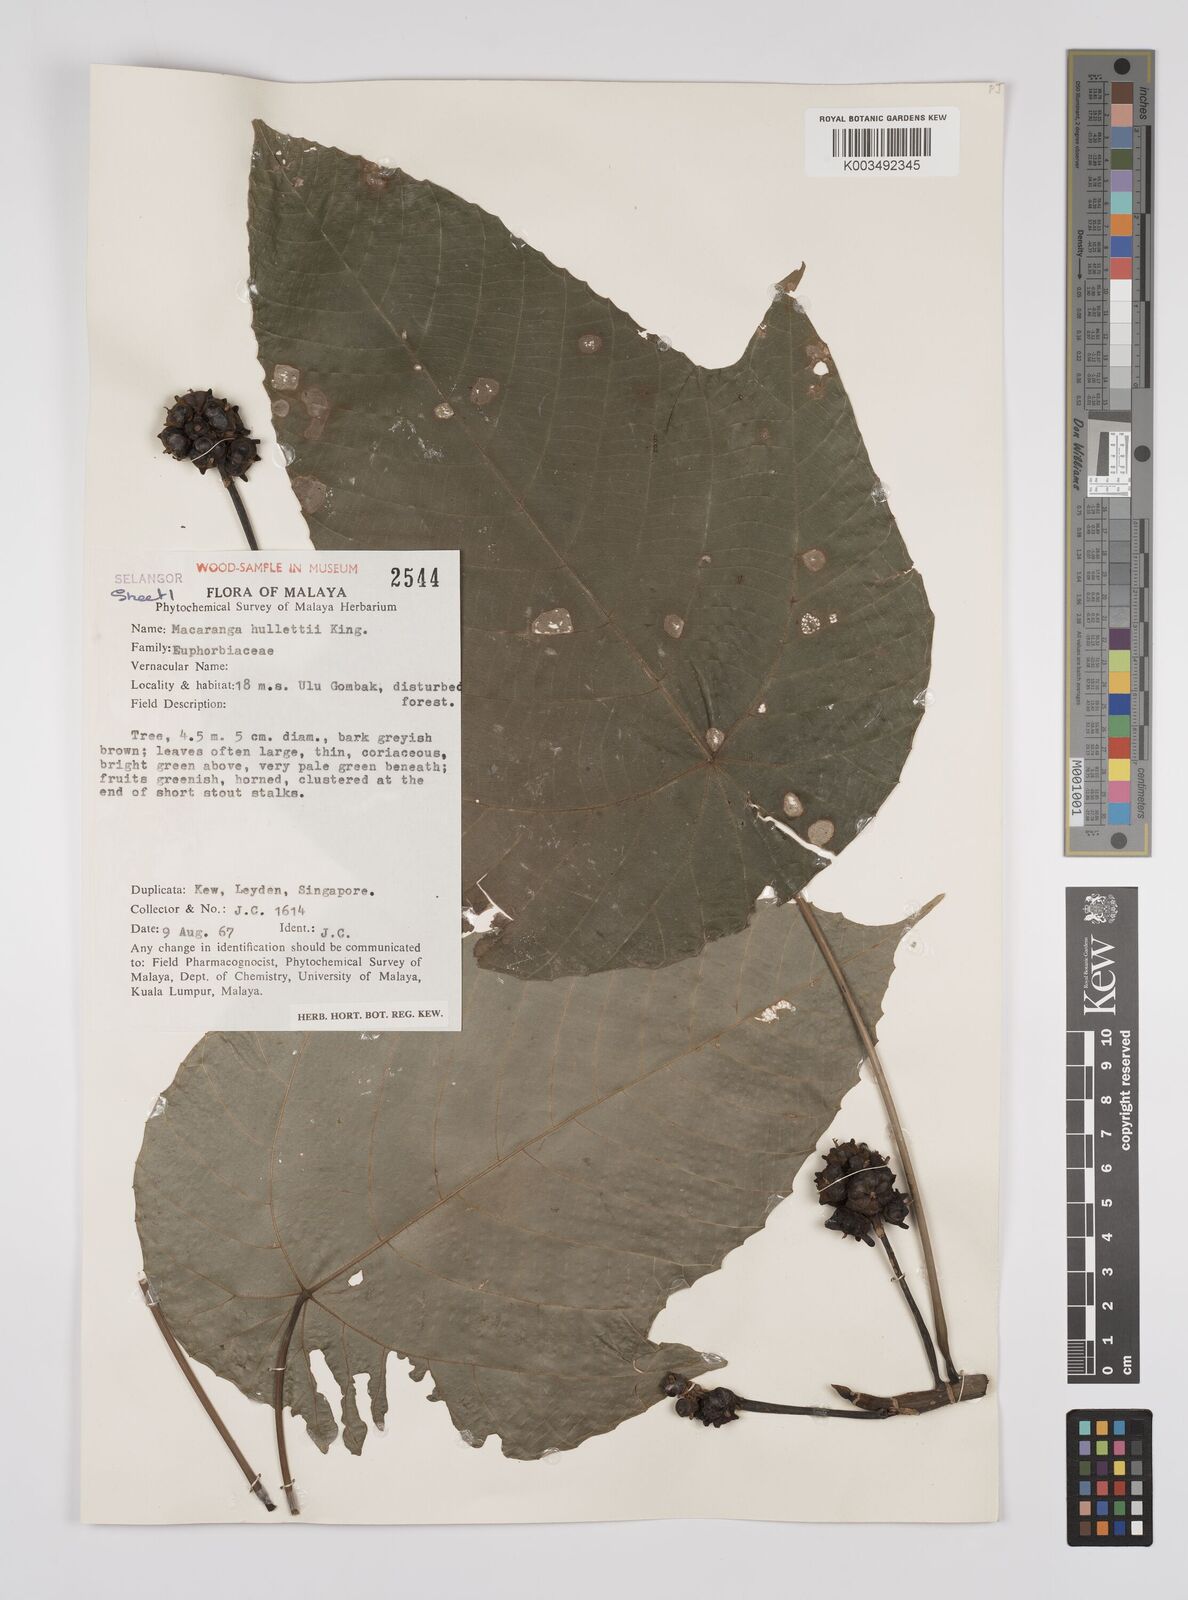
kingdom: Plantae
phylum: Tracheophyta
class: Magnoliopsida
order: Malpighiales
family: Euphorbiaceae
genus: Macaranga
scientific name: Macaranga hullettii
